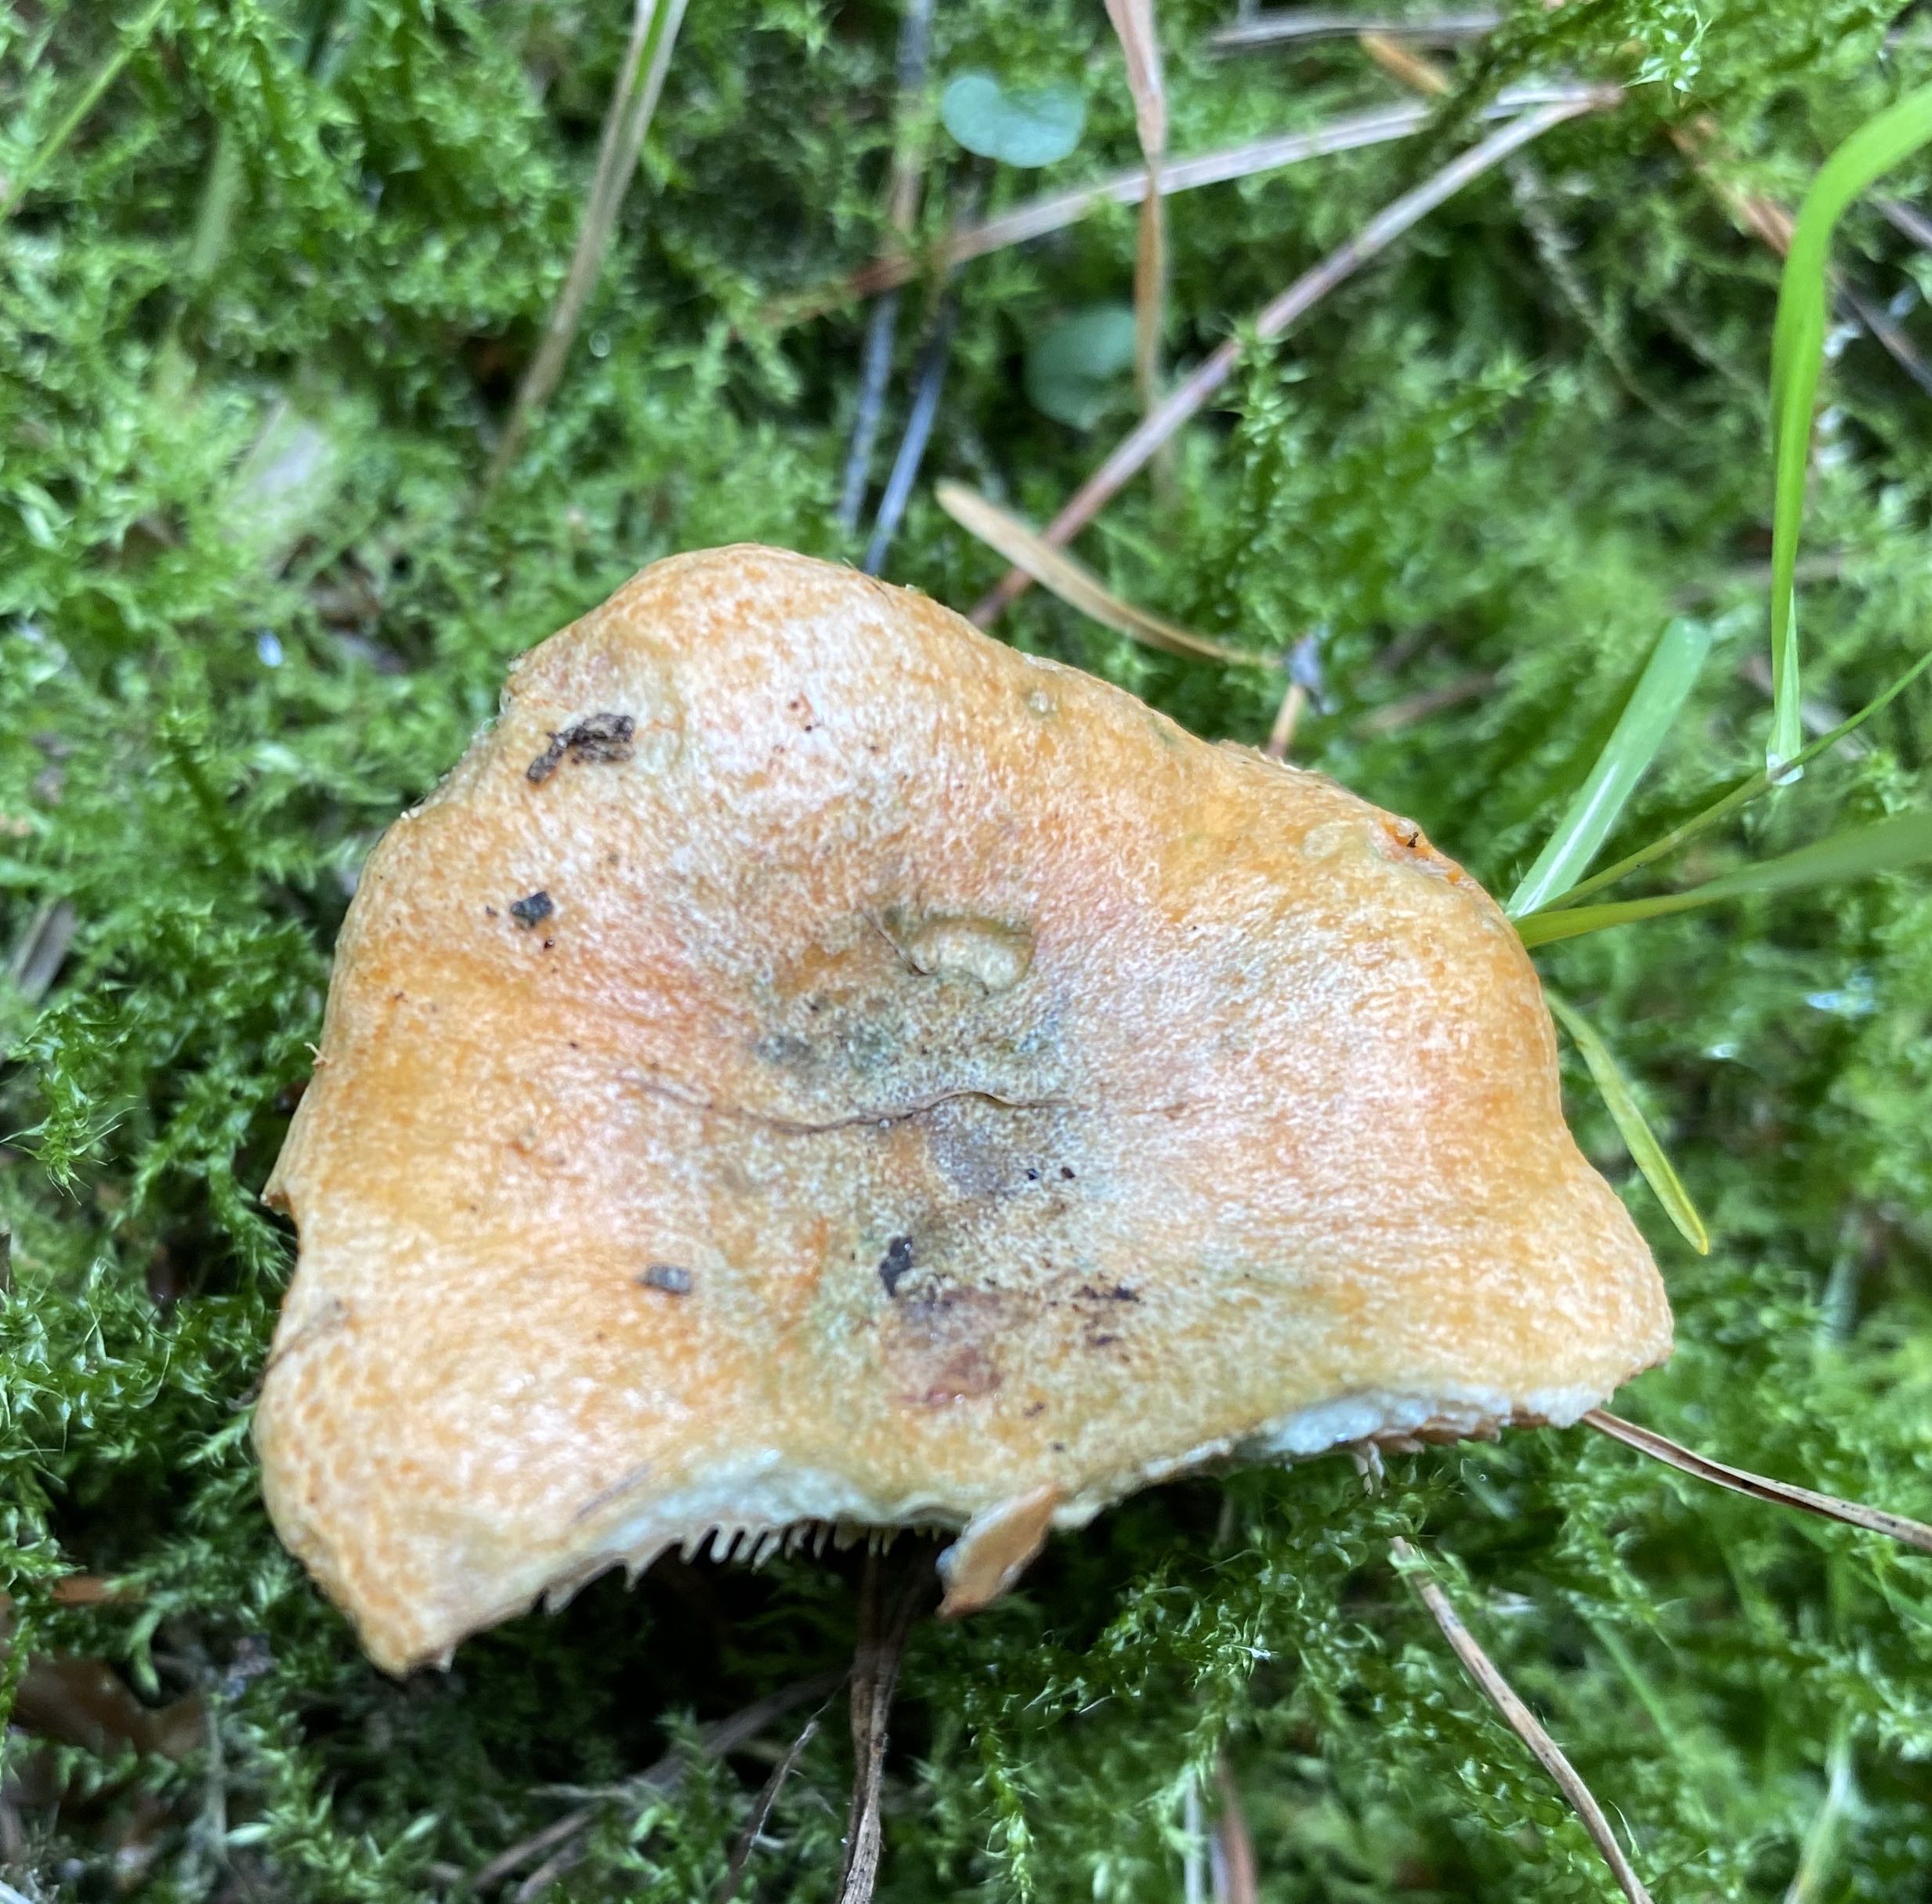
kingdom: Fungi
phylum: Basidiomycota
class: Agaricomycetes
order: Russulales
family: Russulaceae
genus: Lactarius
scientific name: Lactarius deterrimus
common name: gran-mælkehat
